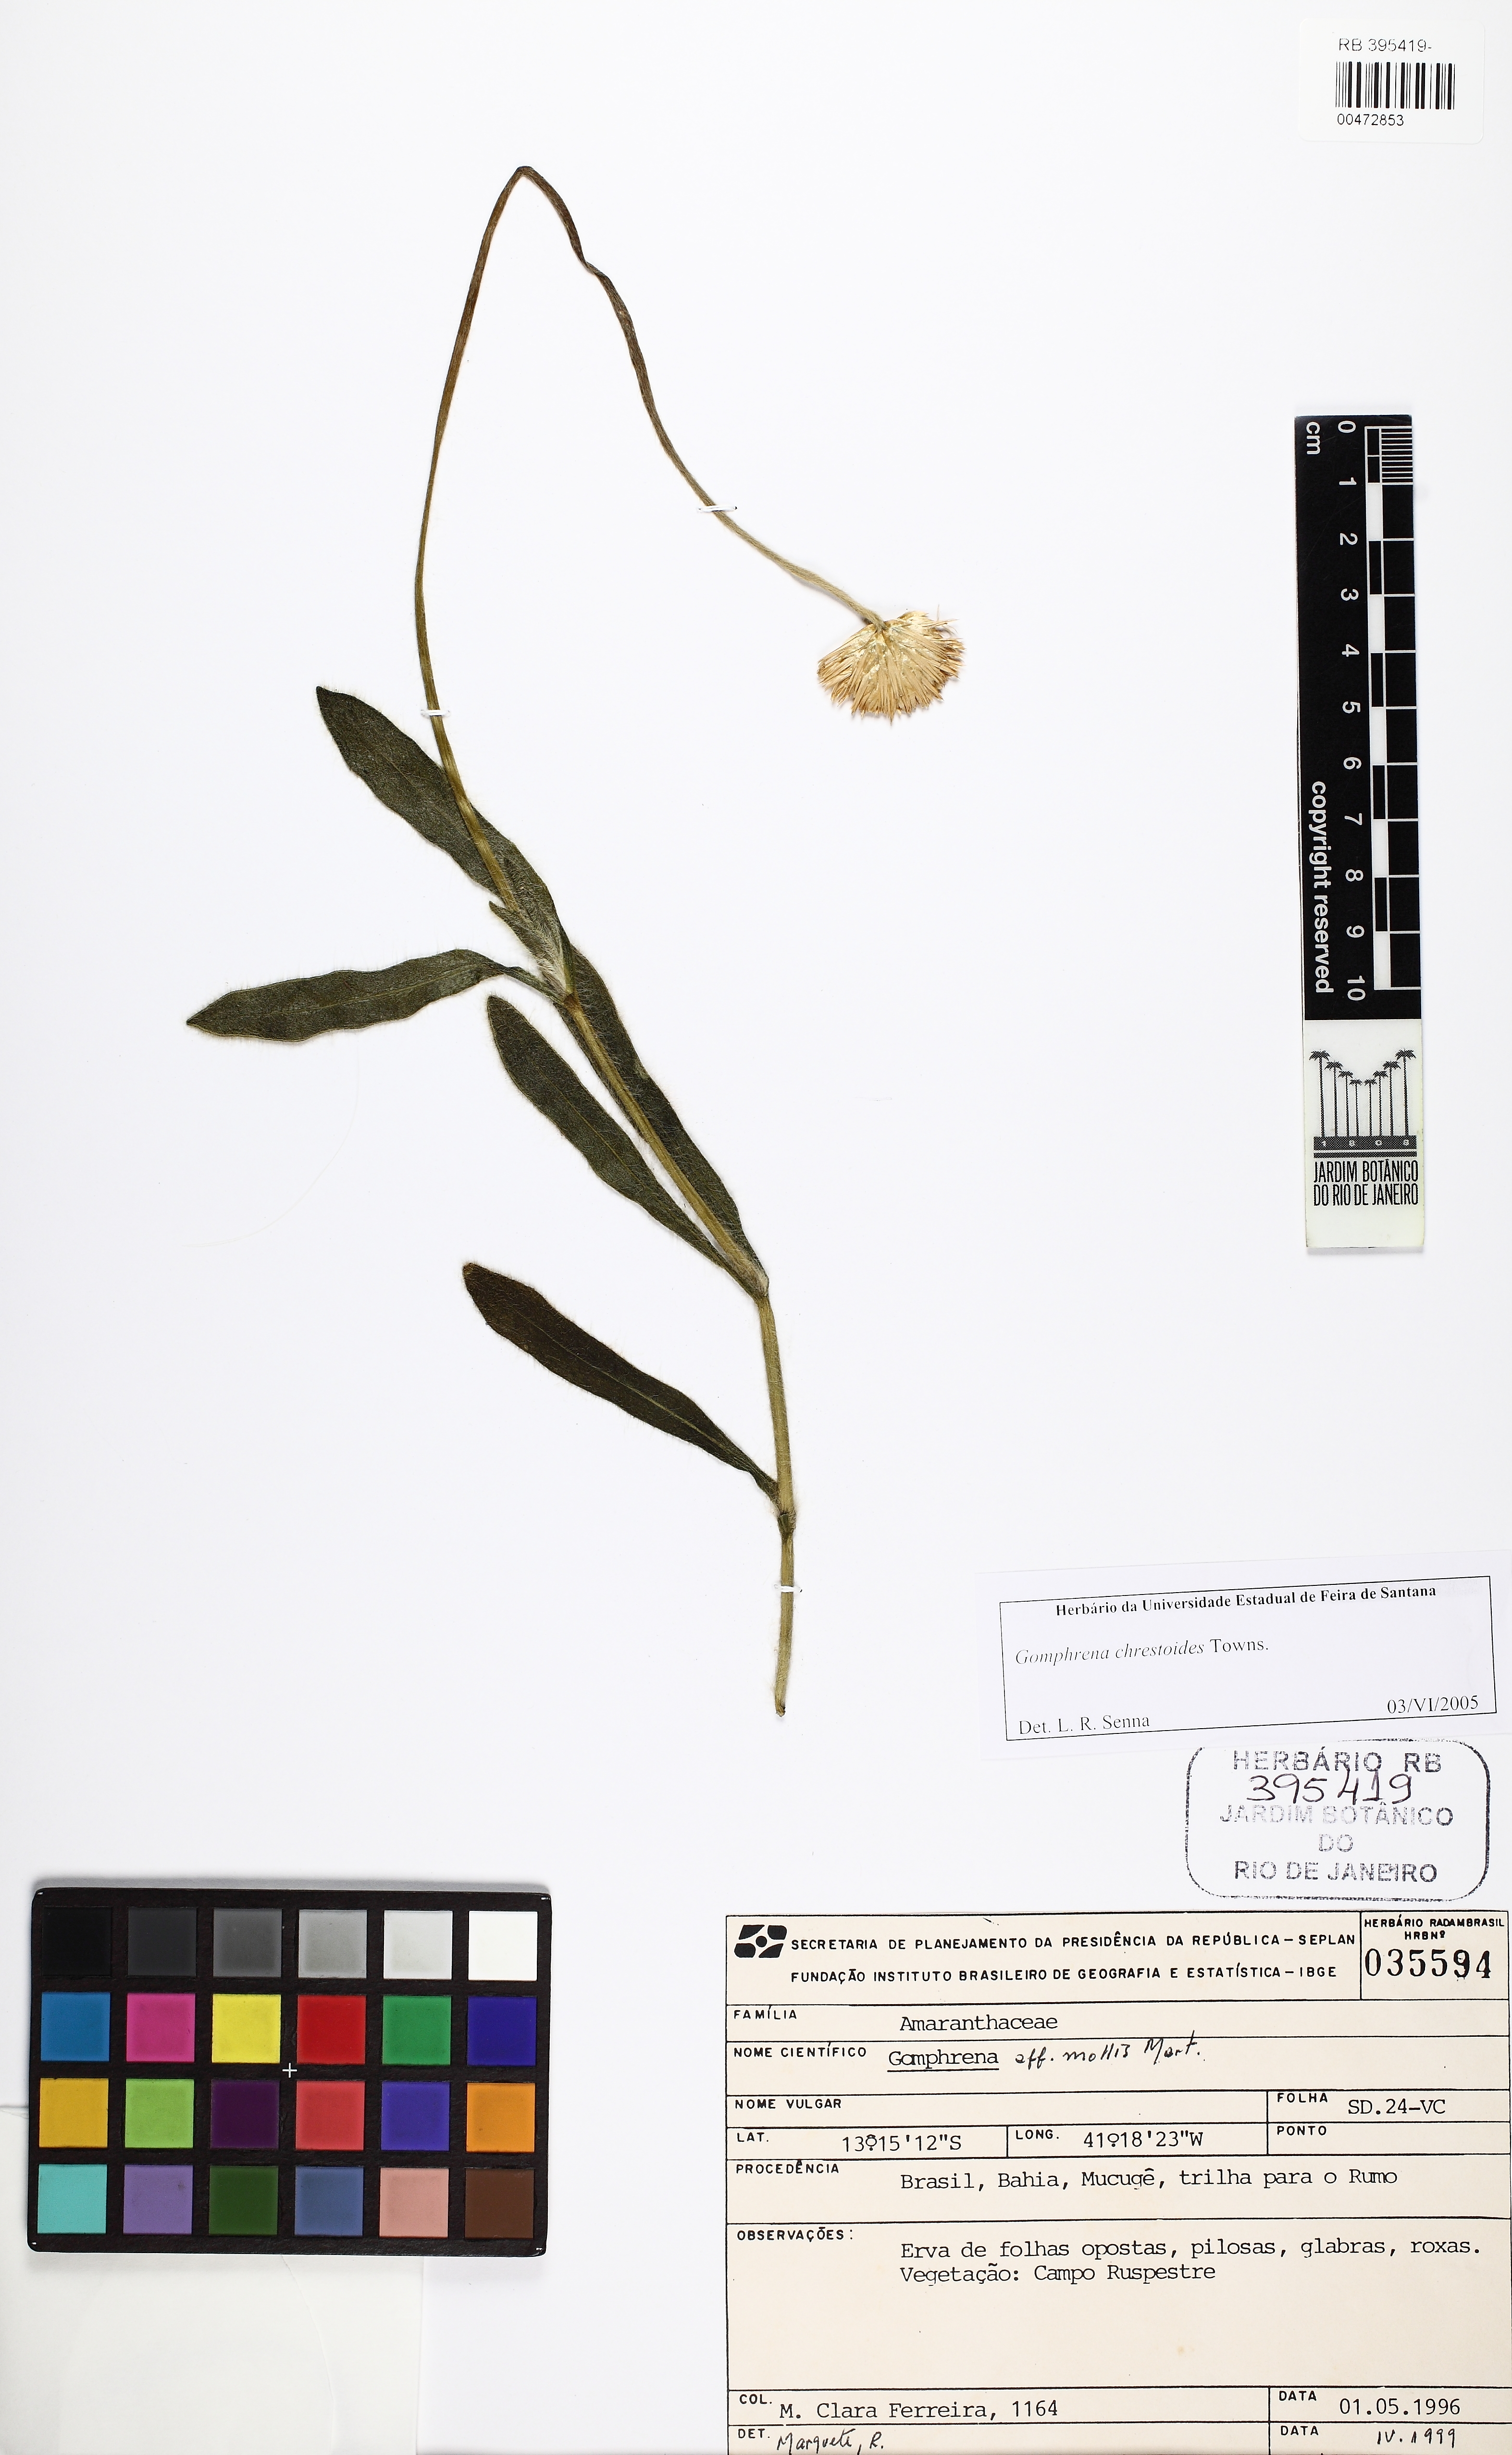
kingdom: Plantae
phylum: Tracheophyta
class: Magnoliopsida
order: Caryophyllales
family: Amaranthaceae
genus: Gomphrena
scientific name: Gomphrena chrestoides
